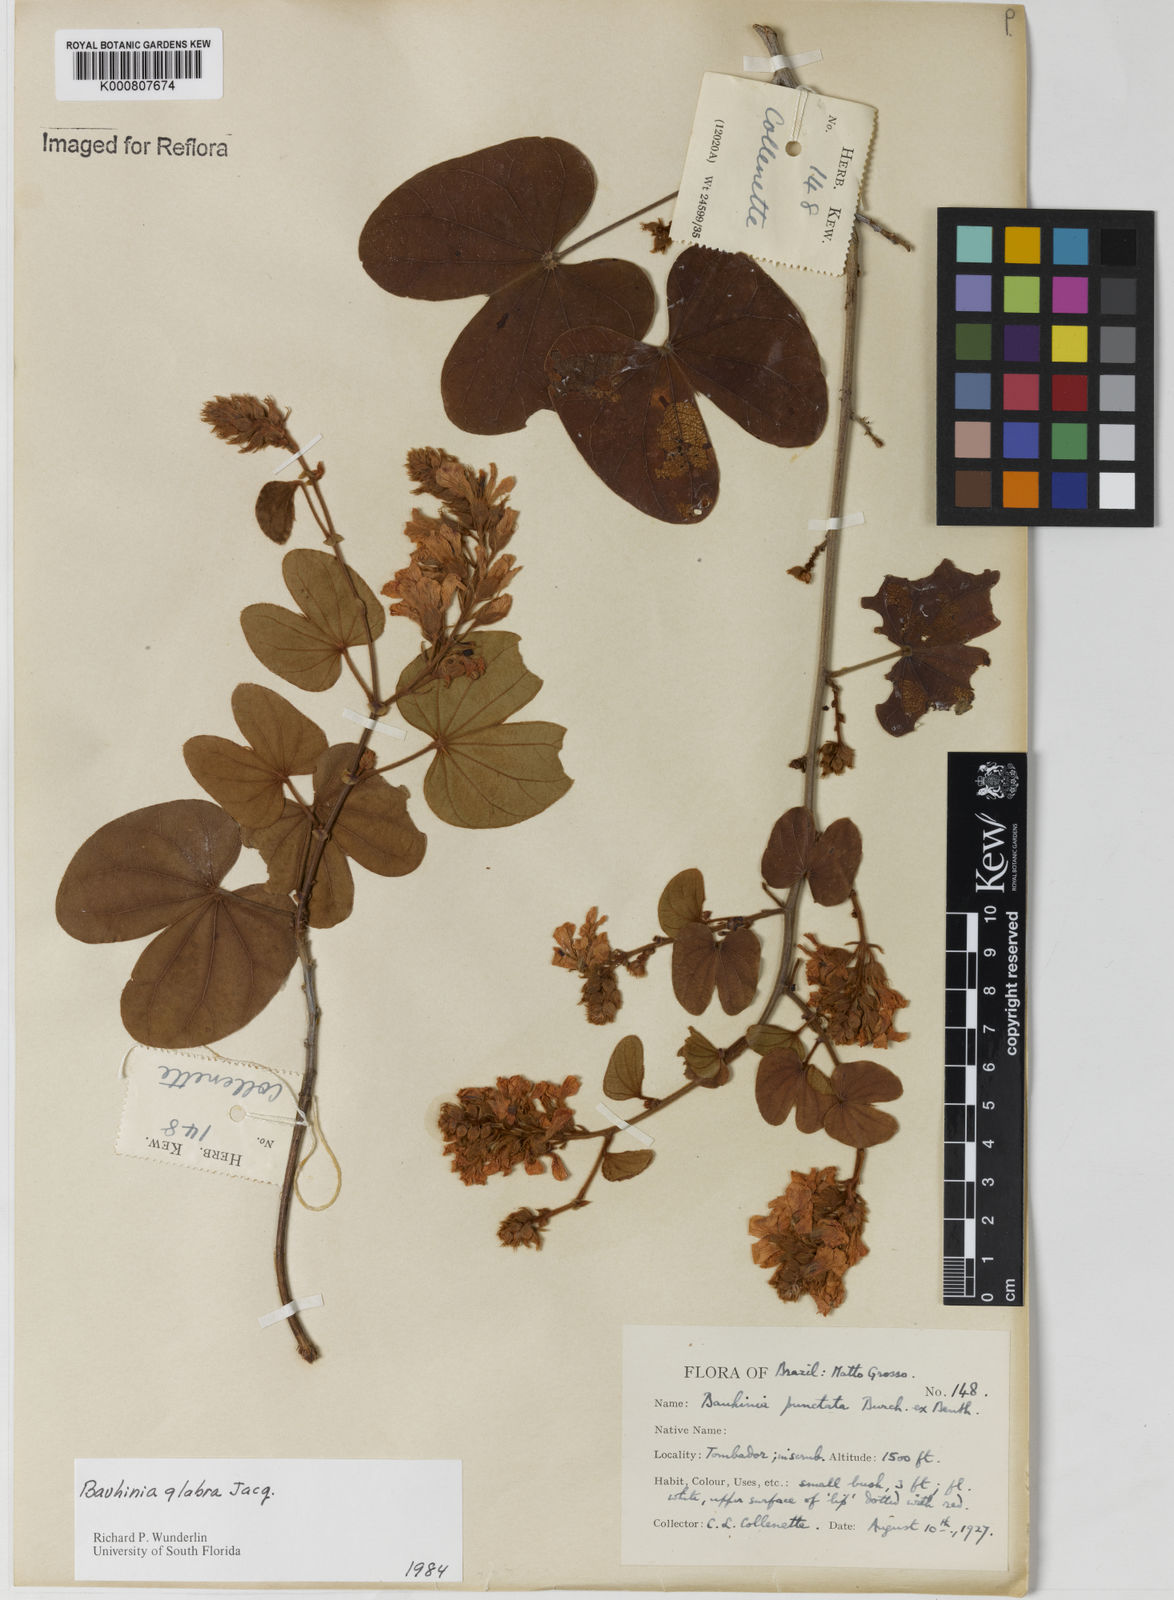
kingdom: Plantae
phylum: Tracheophyta
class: Magnoliopsida
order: Fabales
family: Fabaceae
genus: Schnella
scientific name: Schnella glabra
